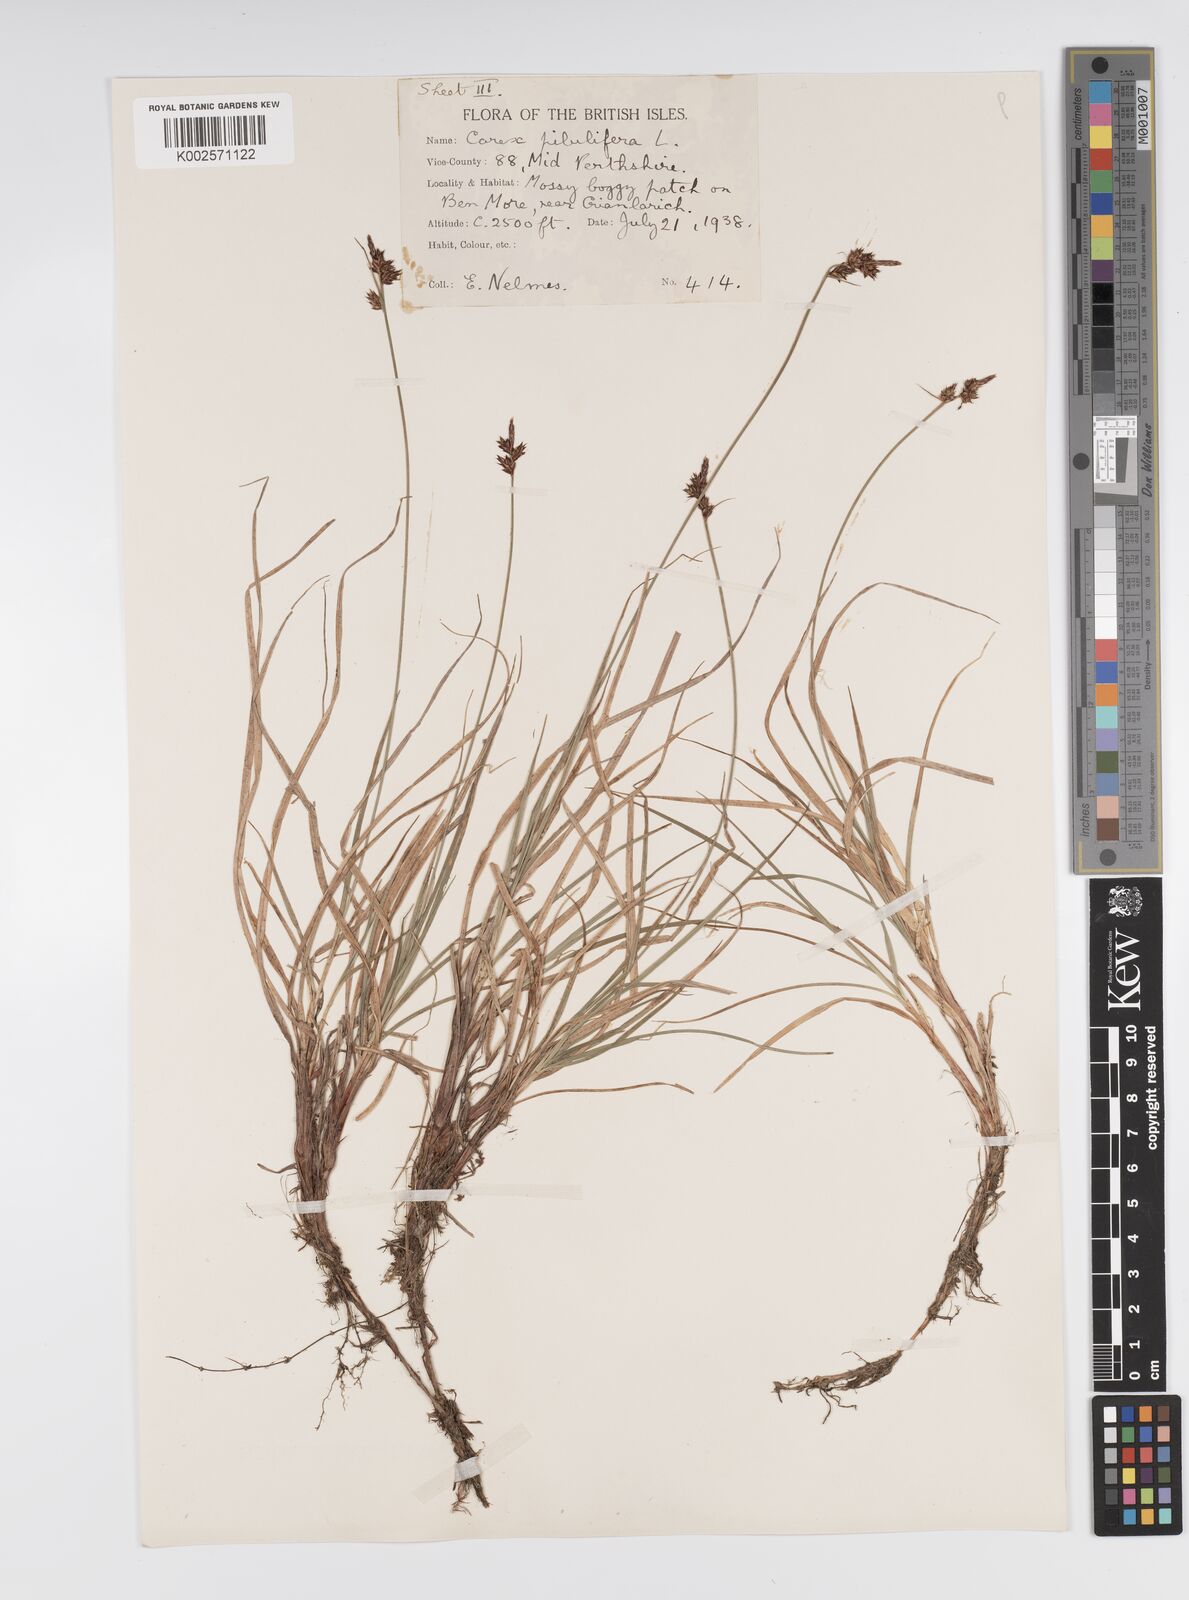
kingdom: Plantae
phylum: Tracheophyta
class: Liliopsida
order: Poales
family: Cyperaceae
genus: Carex
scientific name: Carex pilulifera
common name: Pill sedge
